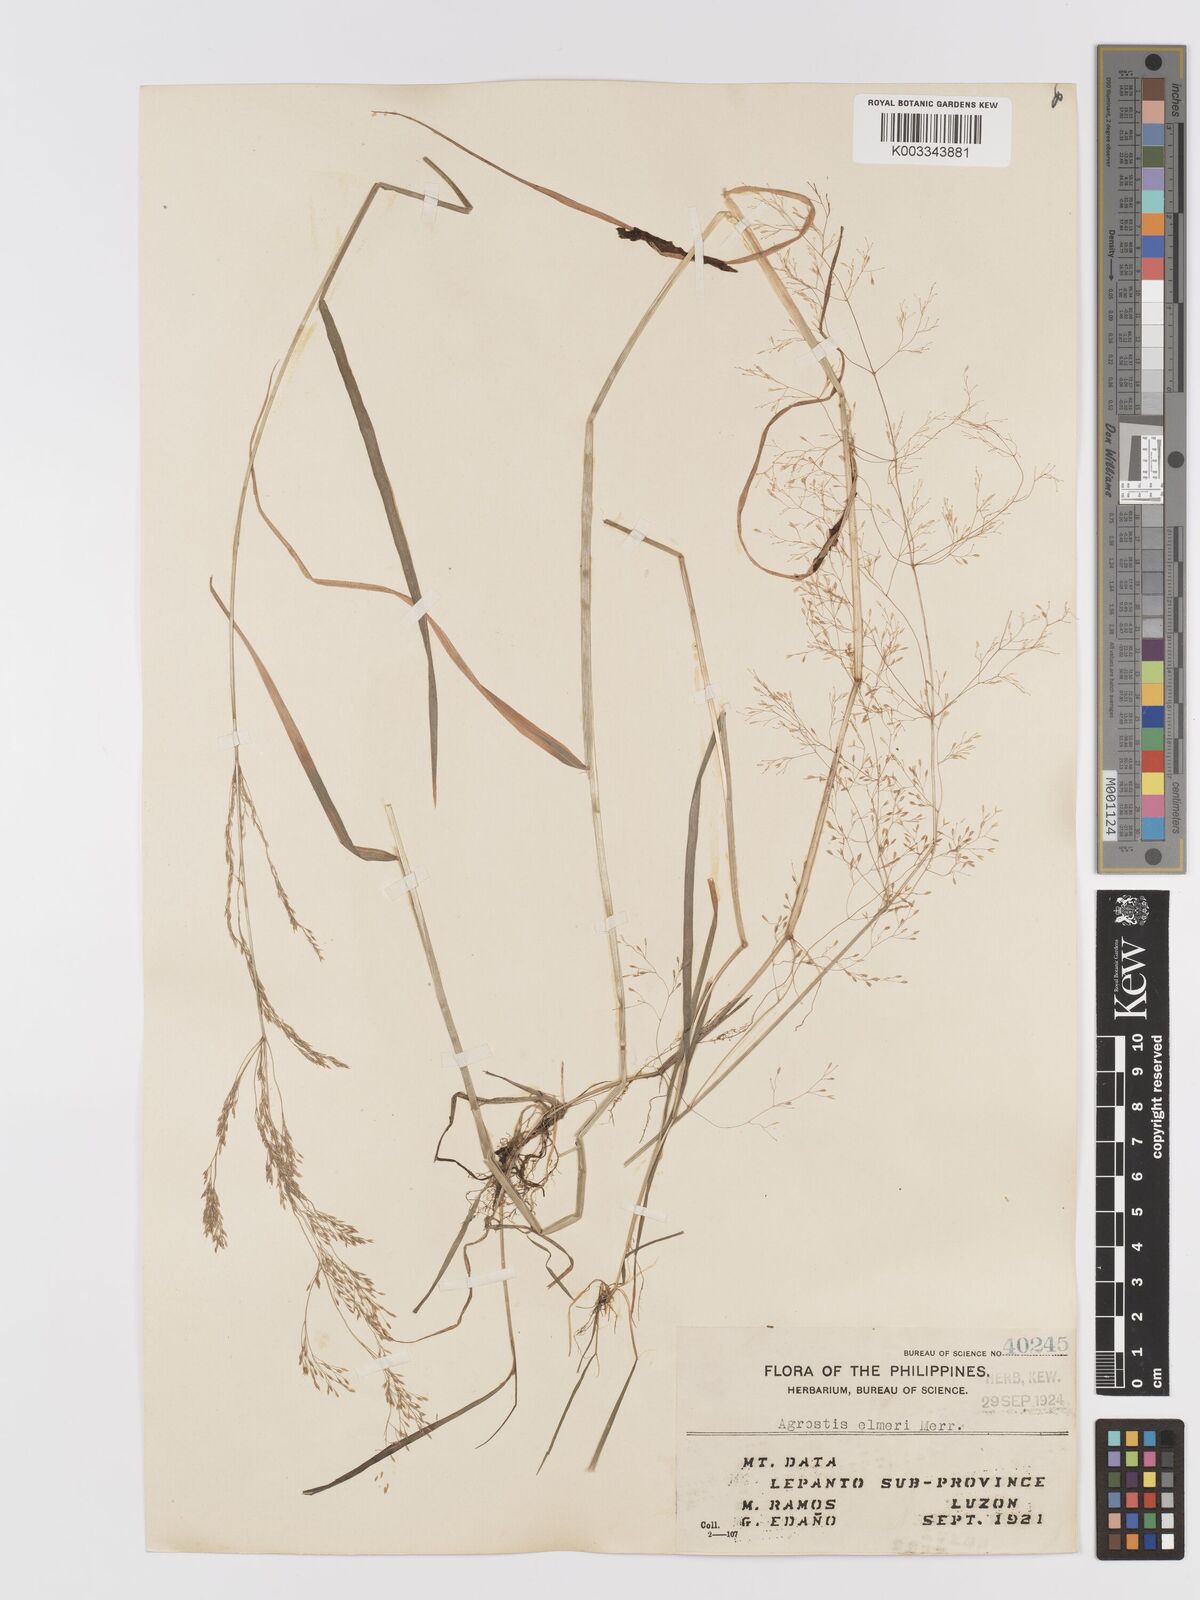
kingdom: Plantae
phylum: Tracheophyta
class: Liliopsida
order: Poales
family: Poaceae
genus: Agrostis
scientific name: Agrostis infirma
